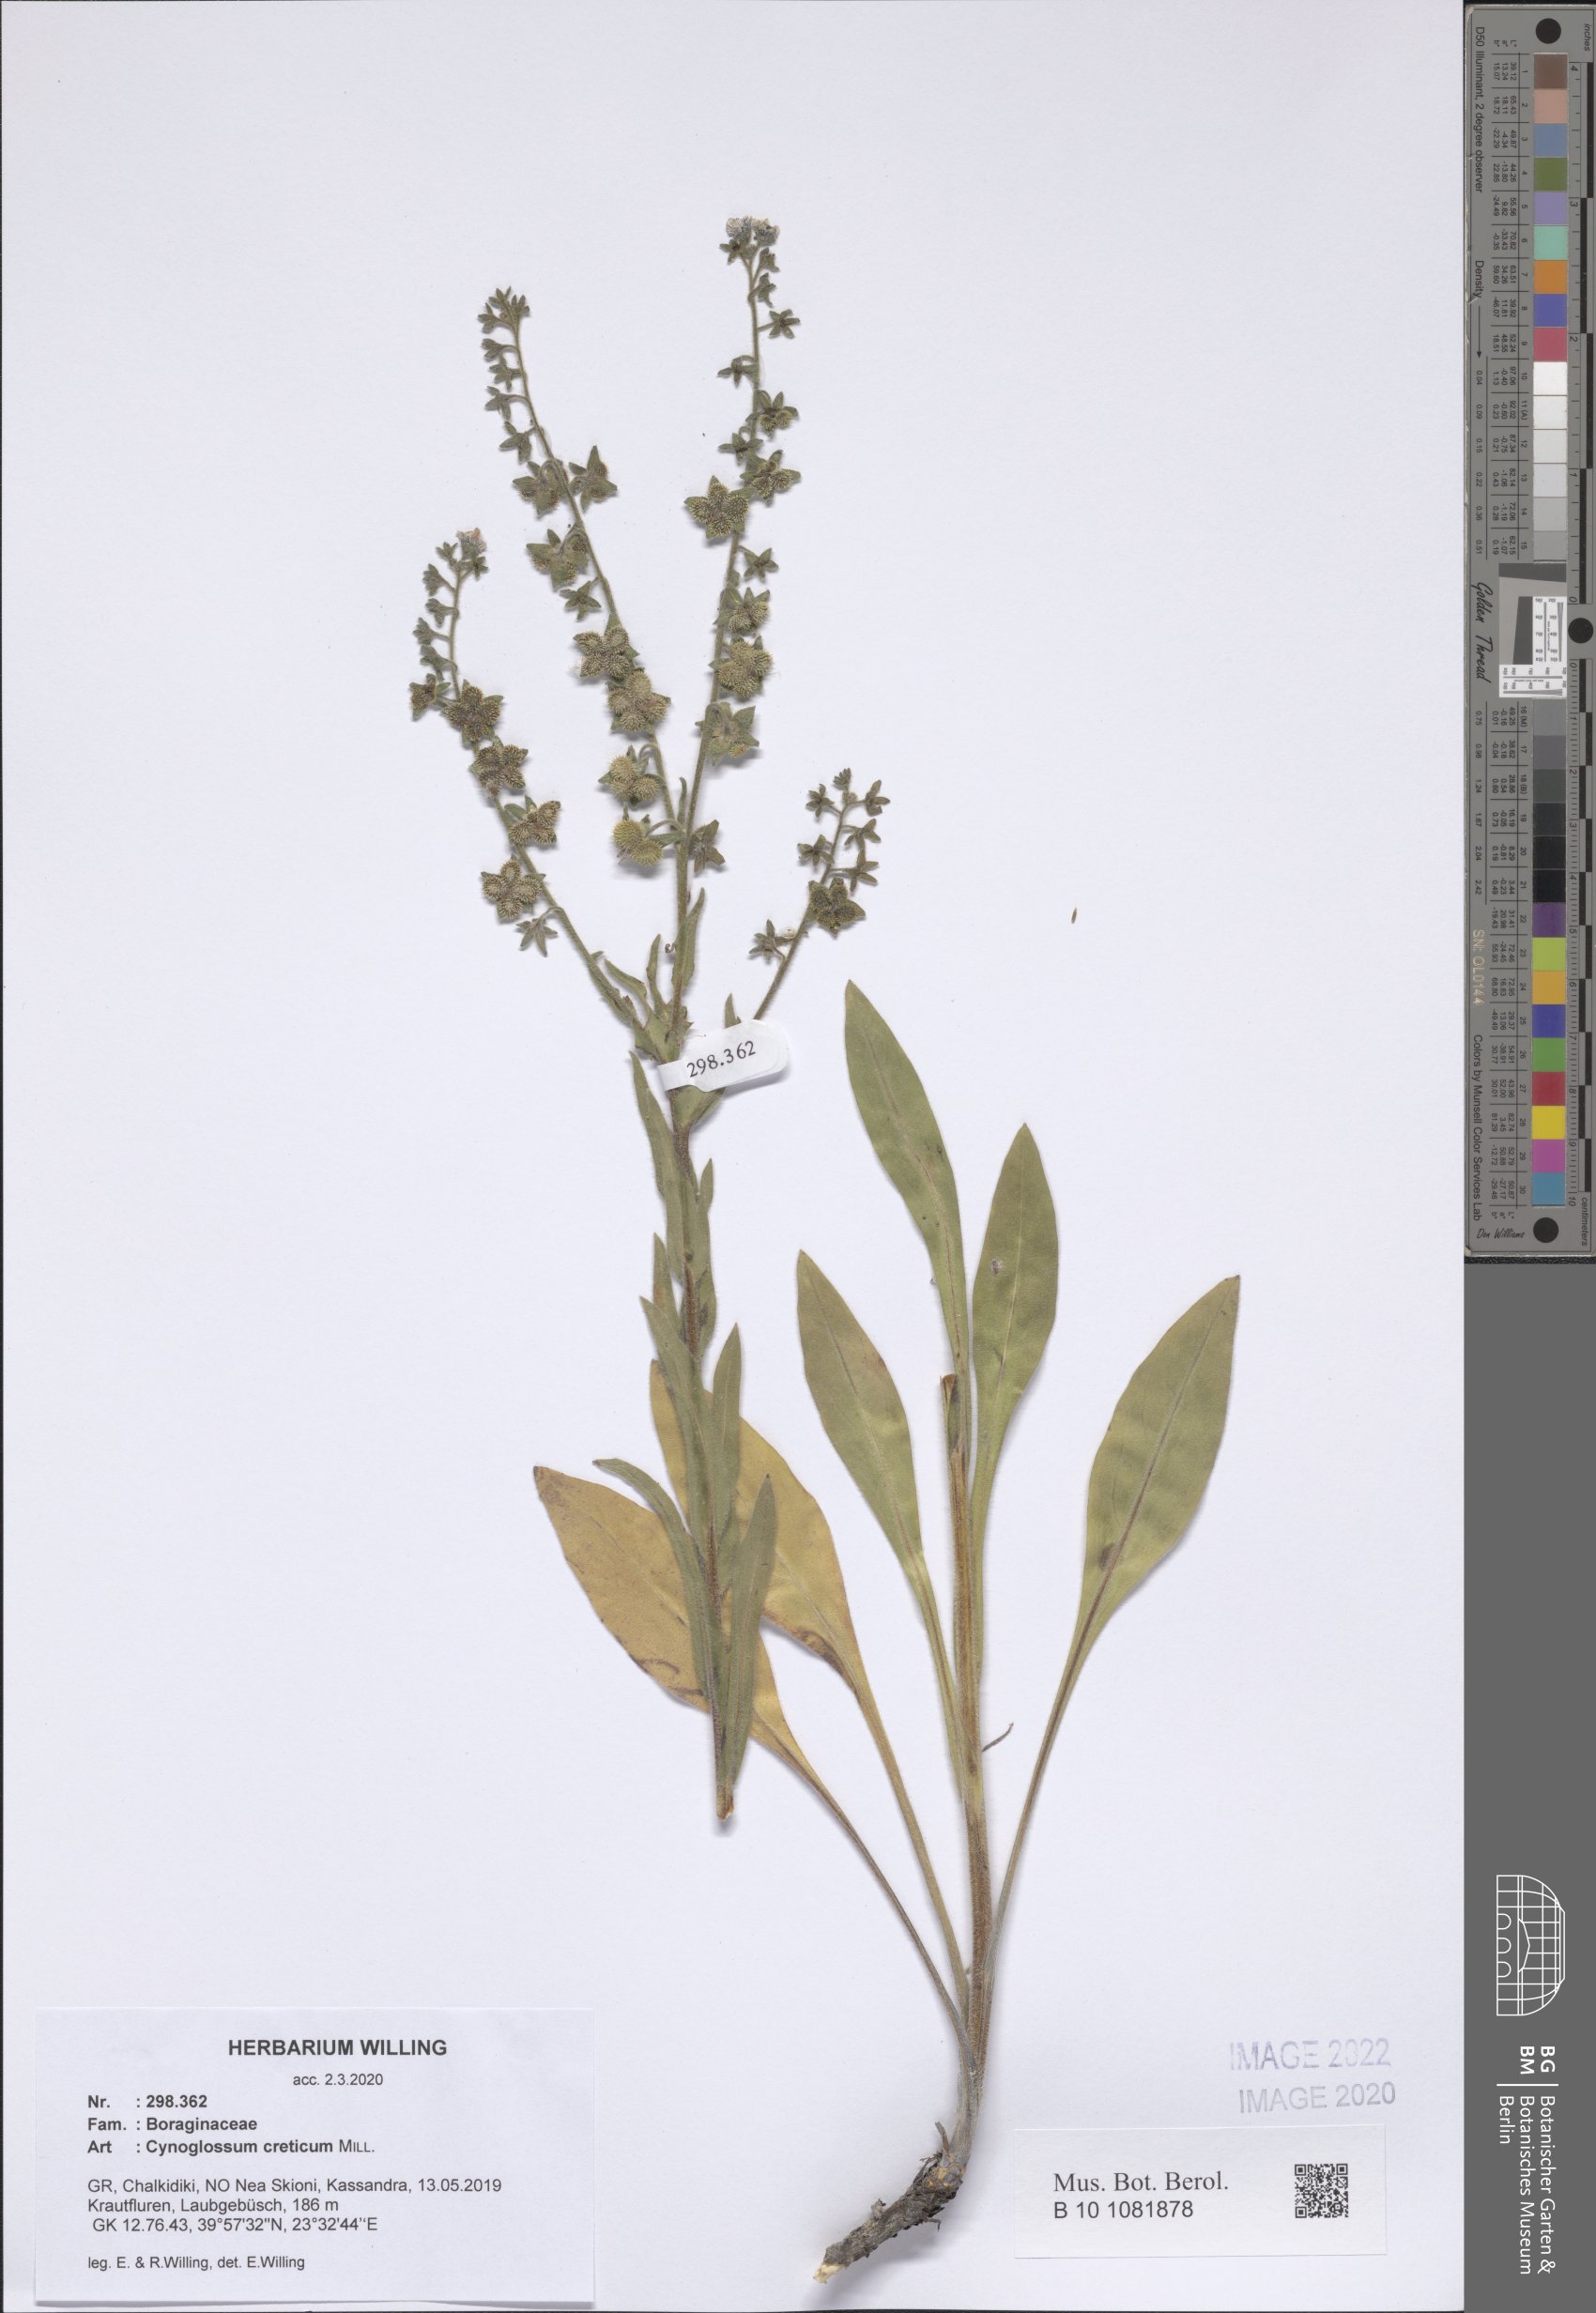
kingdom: Plantae
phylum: Tracheophyta
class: Magnoliopsida
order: Boraginales
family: Boraginaceae
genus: Cynoglossum
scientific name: Cynoglossum creticum
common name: Blue hound's tongue
